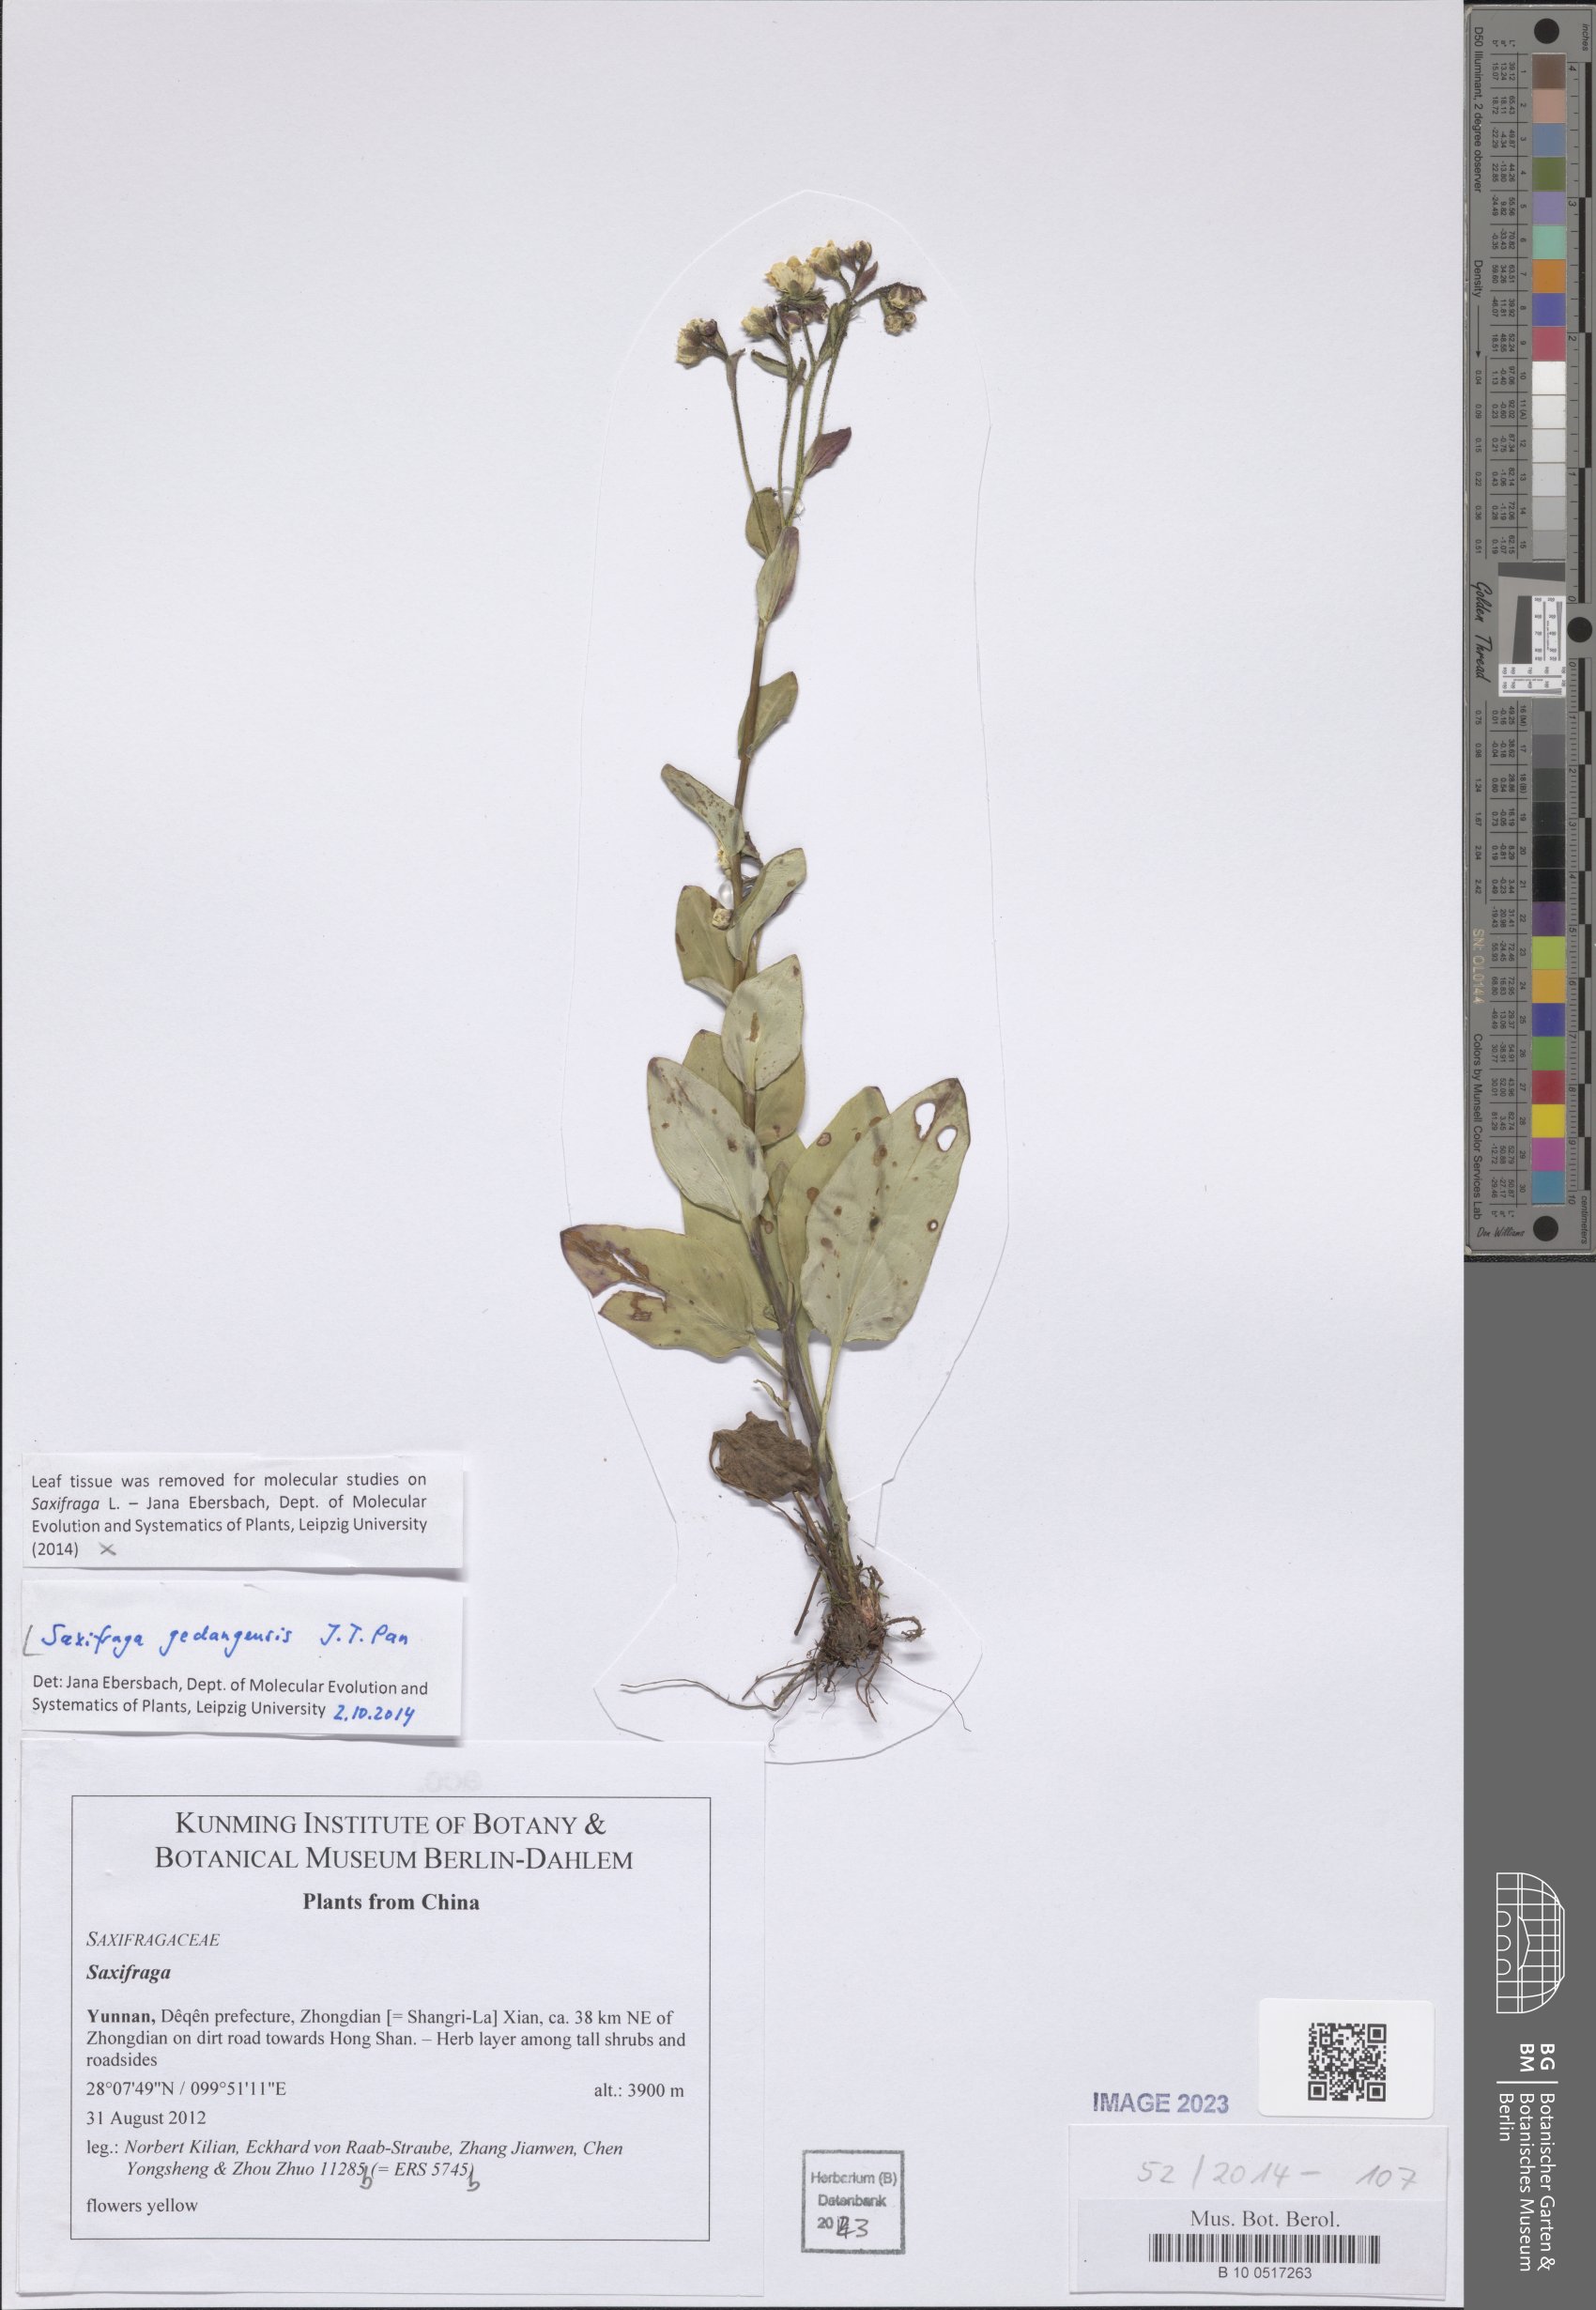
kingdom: Plantae
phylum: Tracheophyta
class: Magnoliopsida
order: Saxifragales
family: Saxifragaceae
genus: Saxifraga
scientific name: Saxifraga gedangensis
